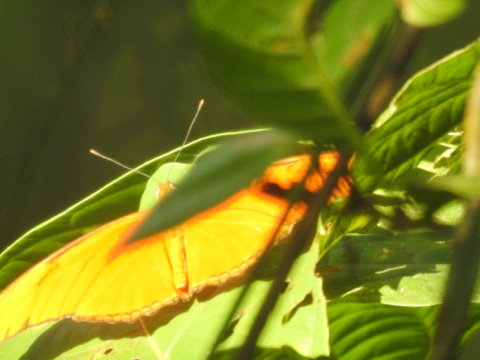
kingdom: Animalia
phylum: Arthropoda
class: Insecta
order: Lepidoptera
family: Nymphalidae
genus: Dryas
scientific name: Dryas iulia
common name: Julia
